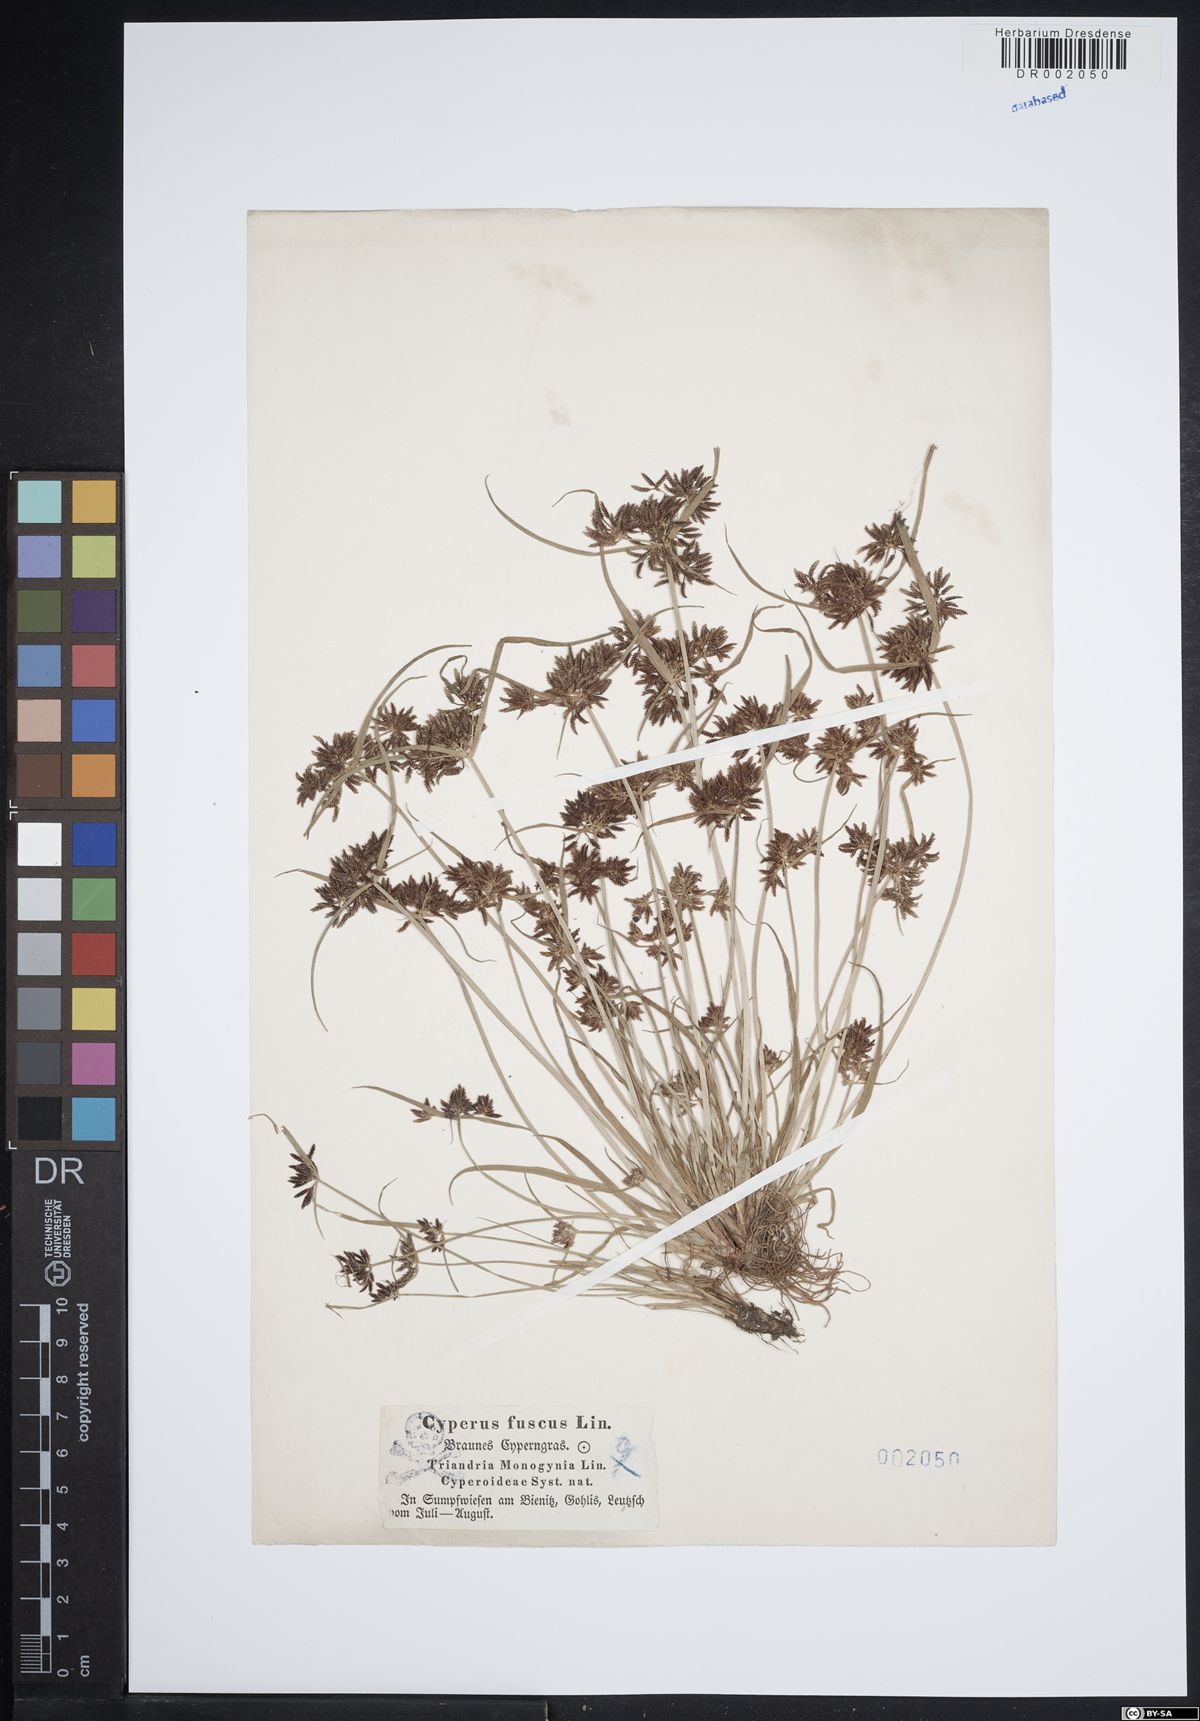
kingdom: Plantae
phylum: Tracheophyta
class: Liliopsida
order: Poales
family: Cyperaceae
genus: Cyperus
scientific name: Cyperus fuscus
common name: Brown galingale
